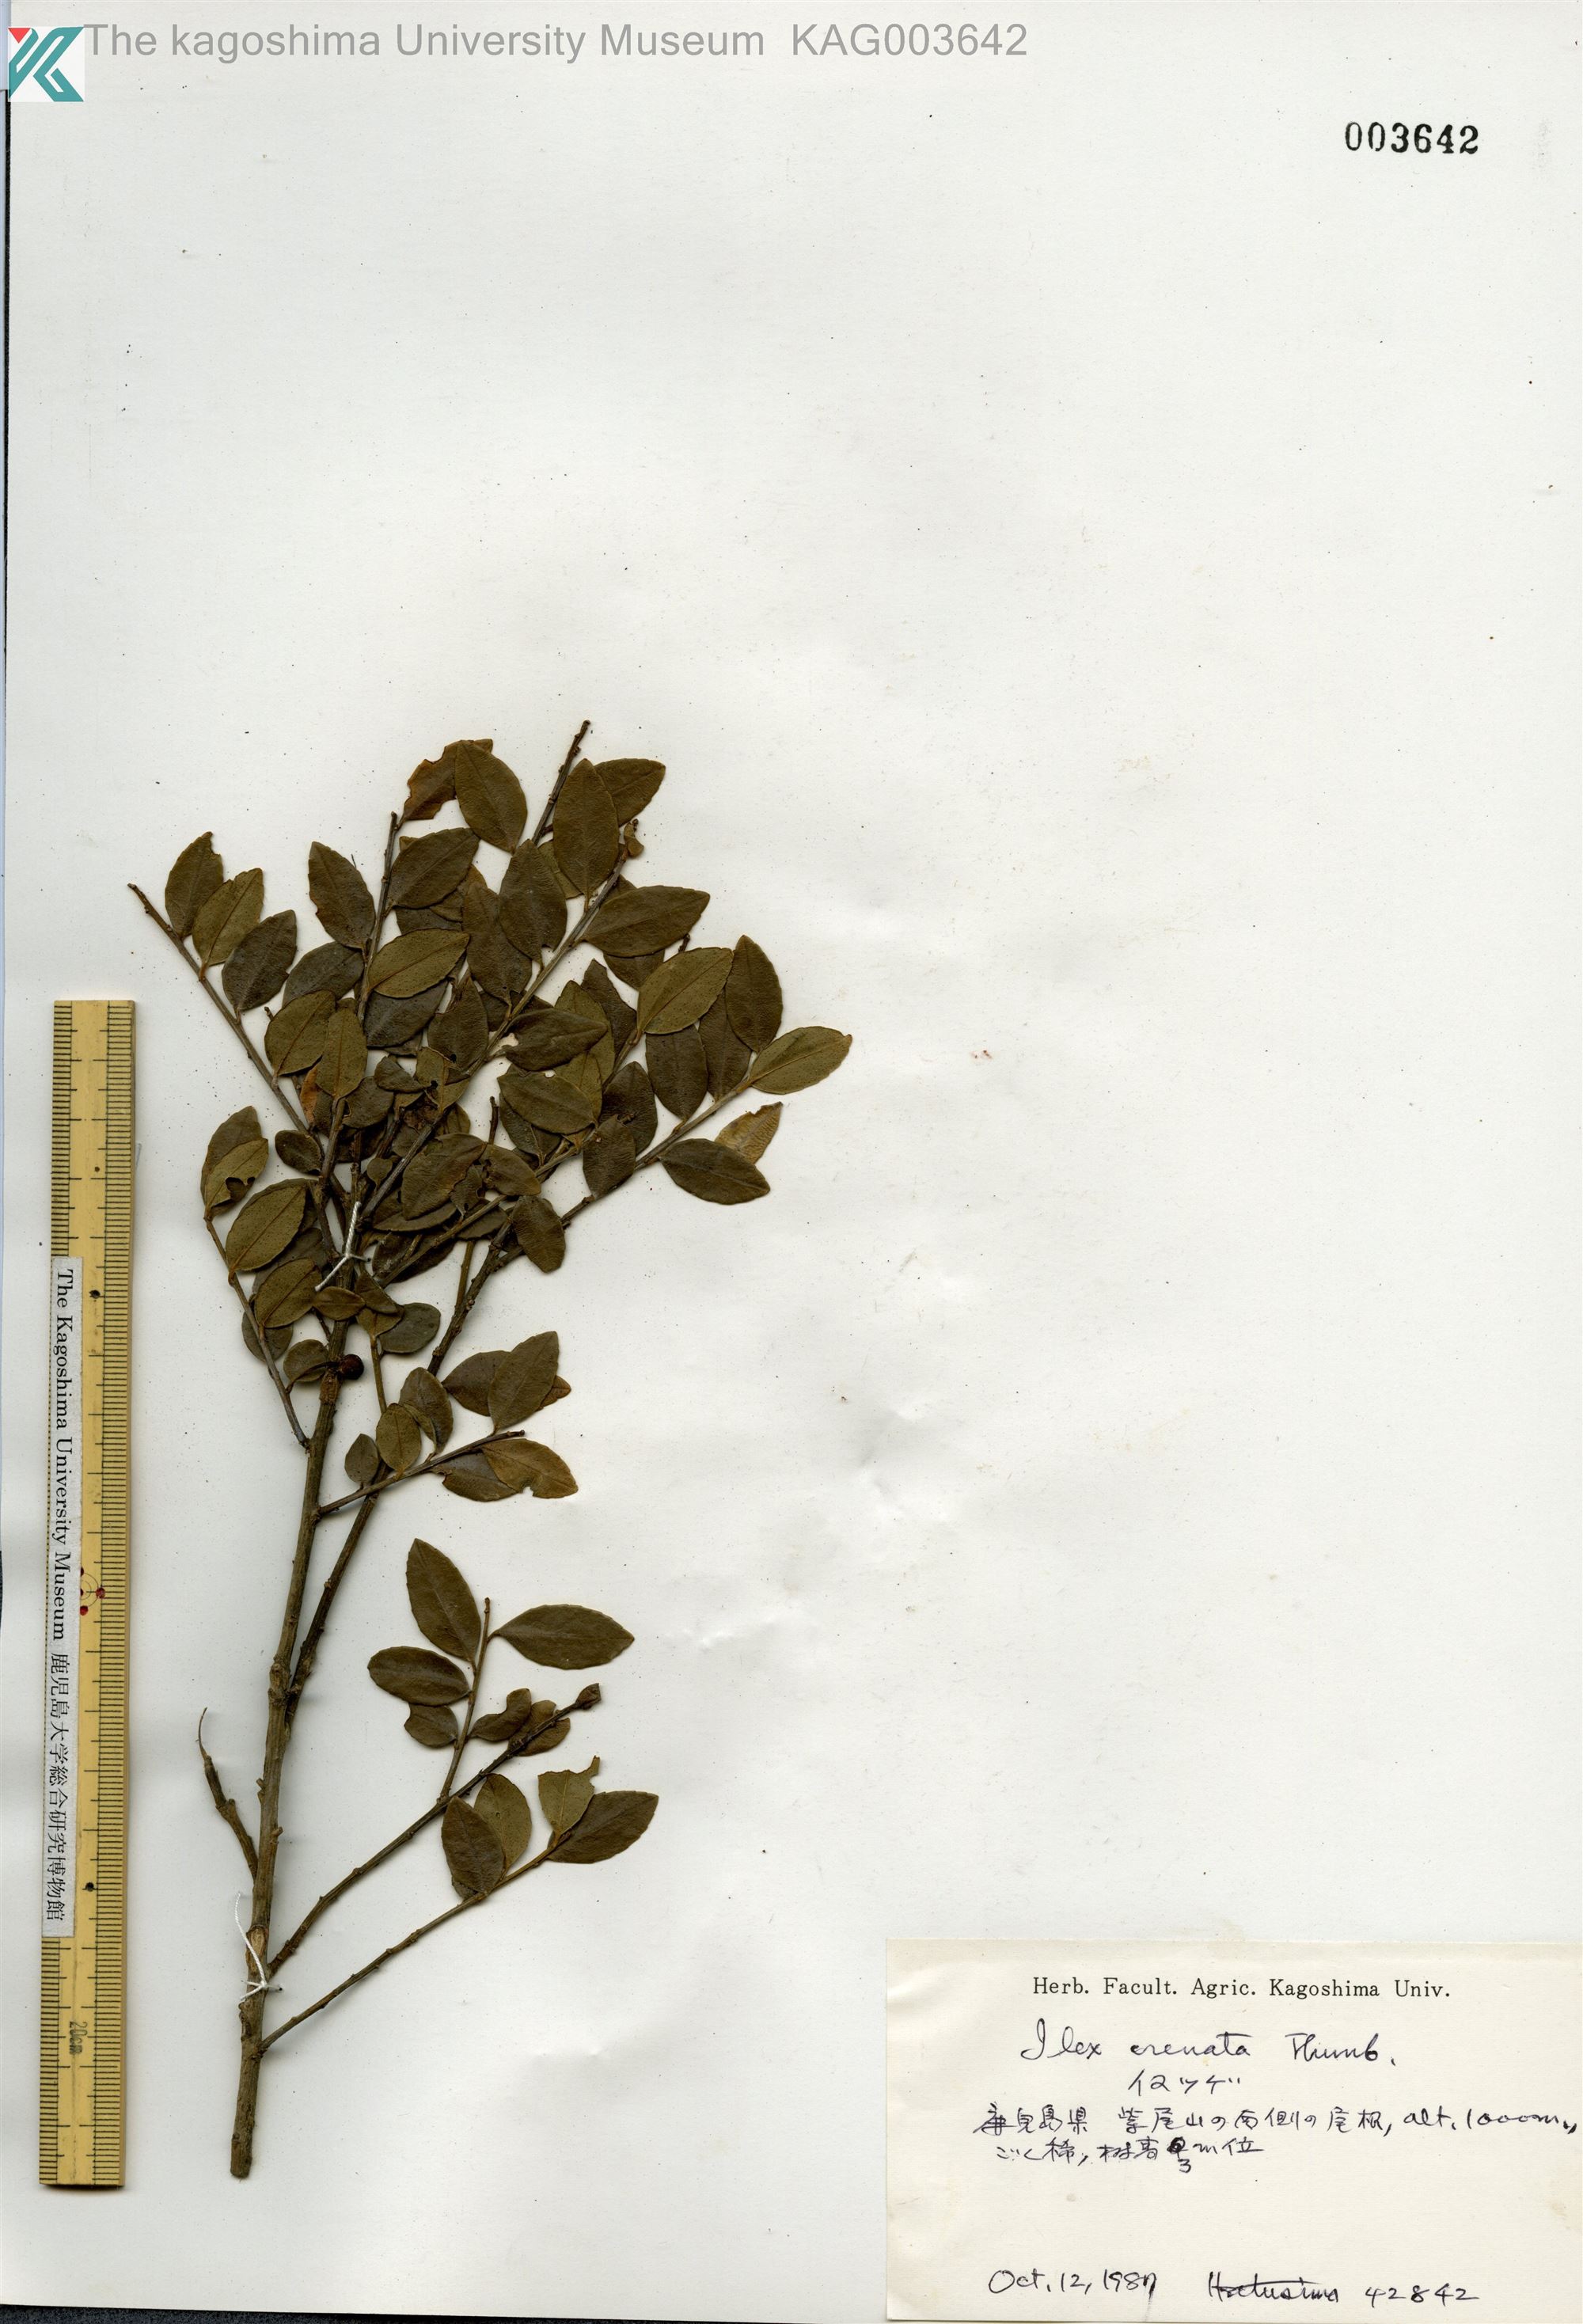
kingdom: Plantae
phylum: Tracheophyta
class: Magnoliopsida
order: Aquifoliales
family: Aquifoliaceae
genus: Ilex
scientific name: Ilex crenata
